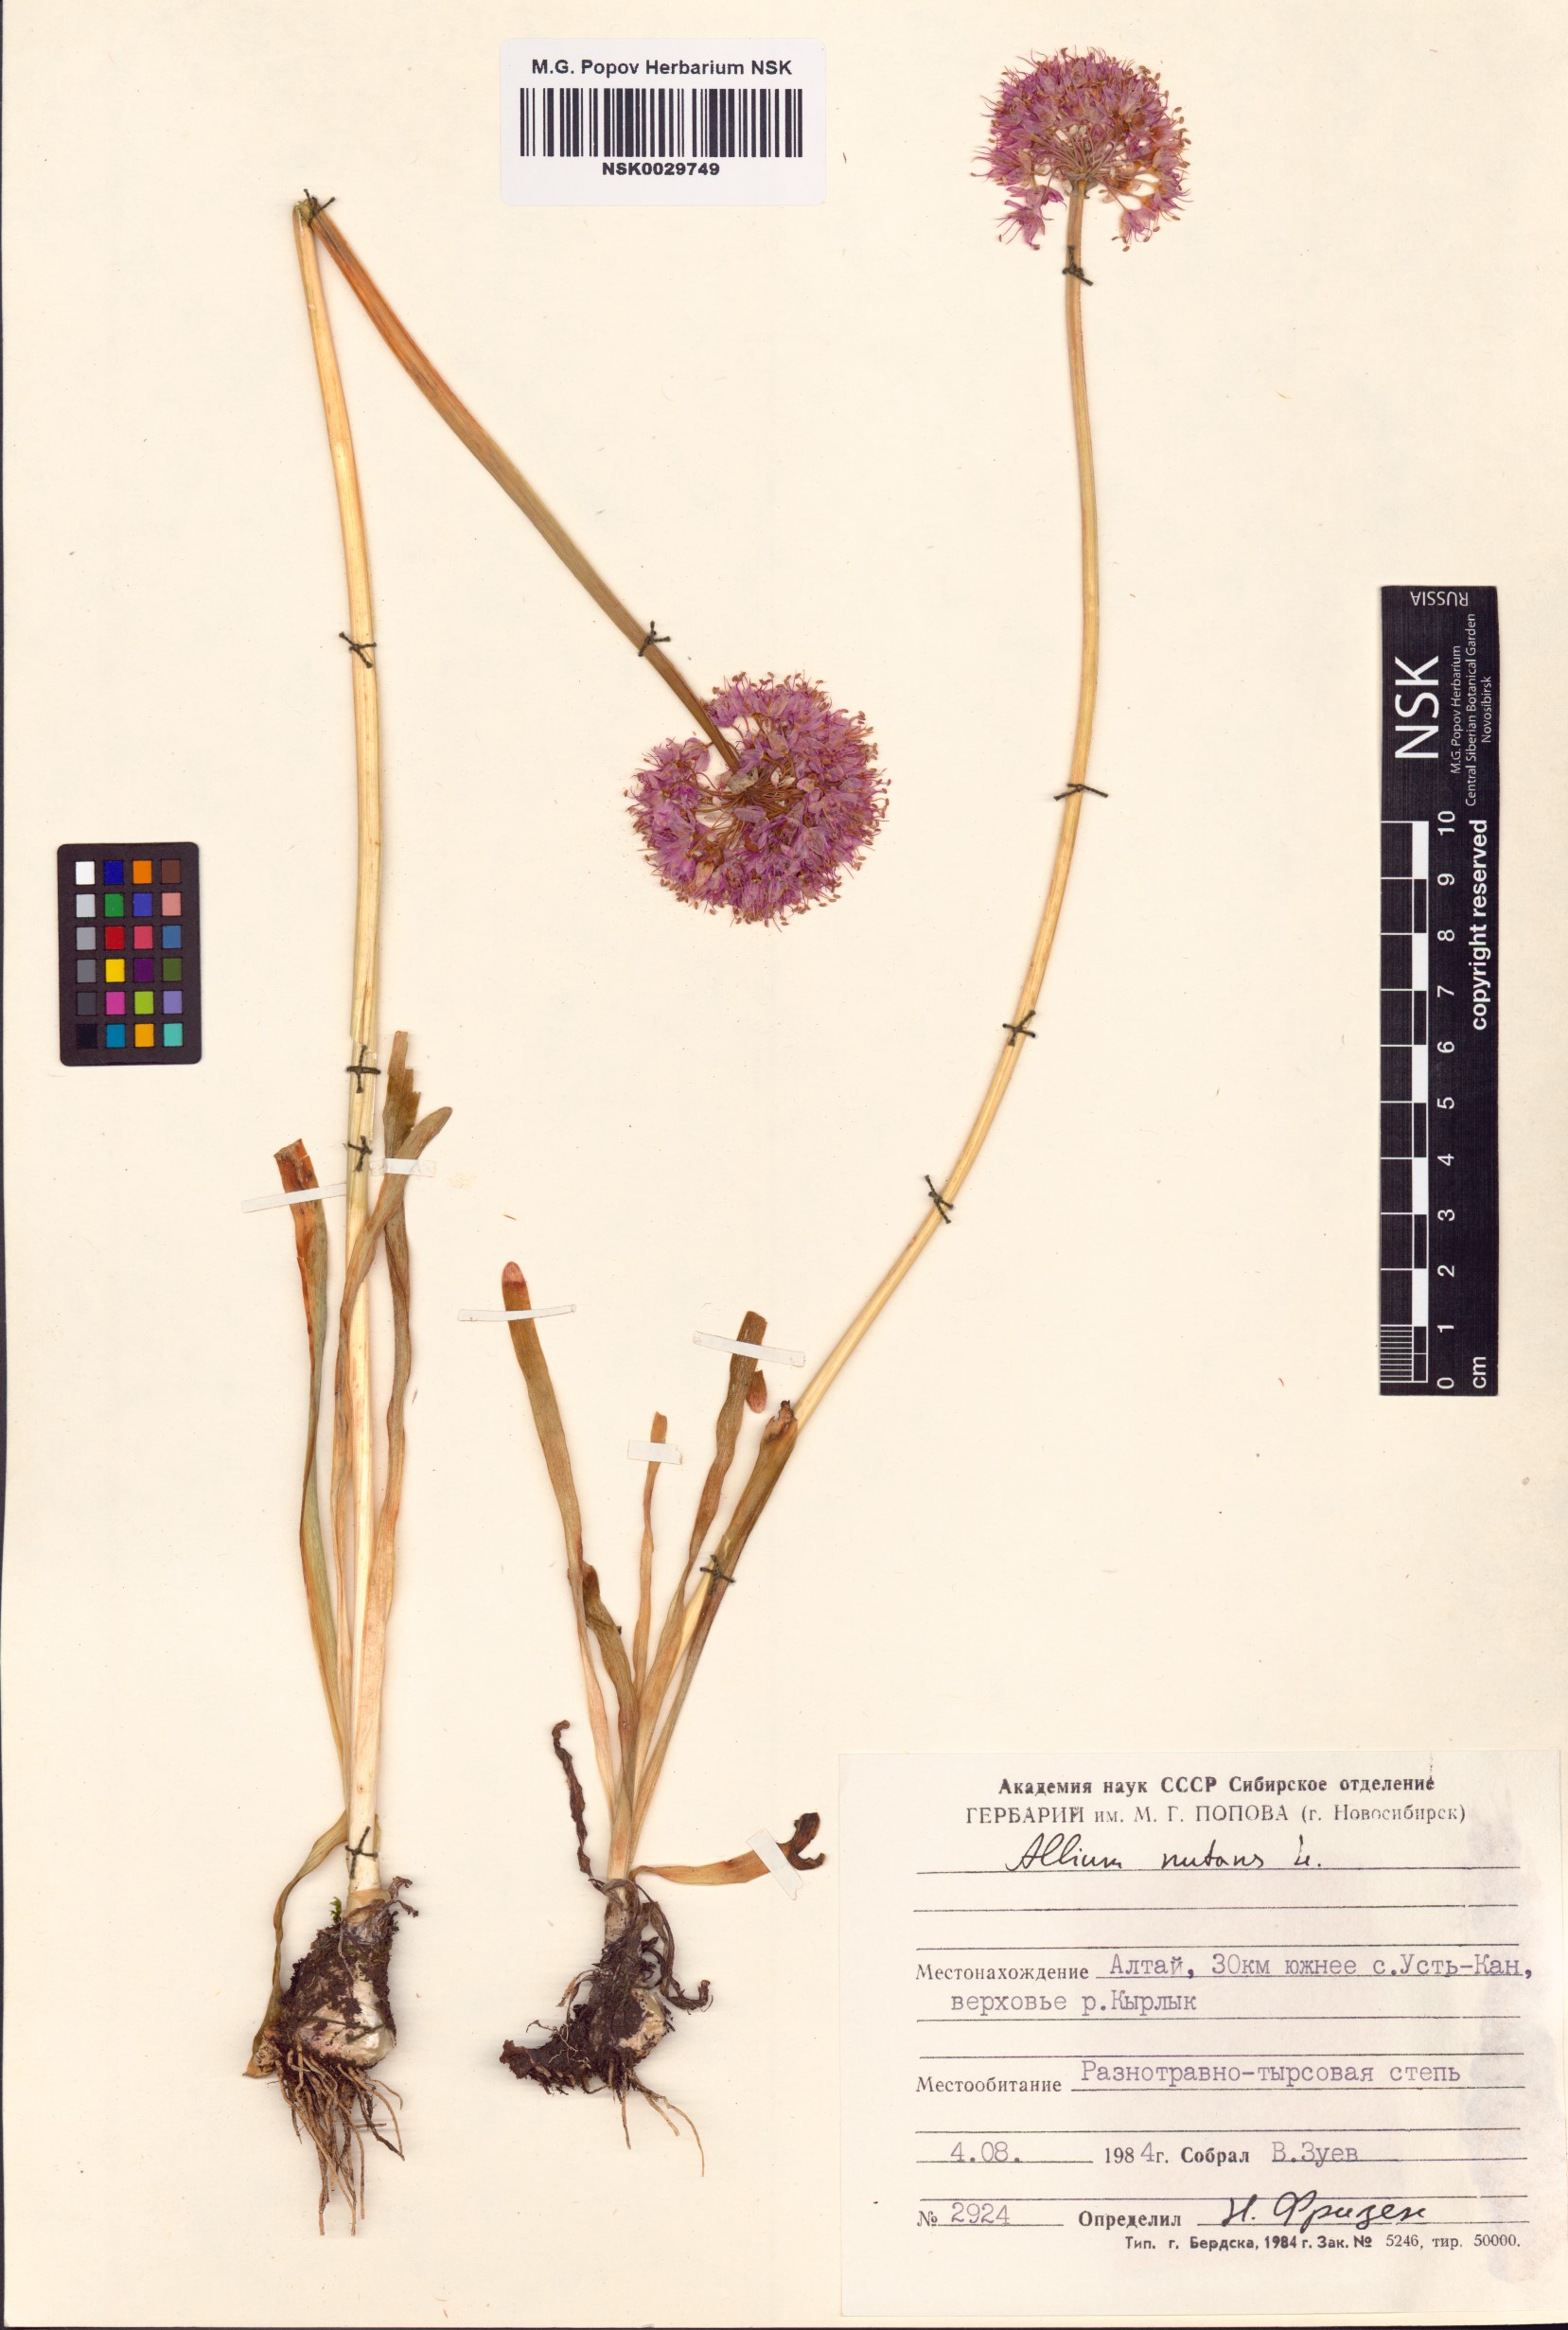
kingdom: Plantae
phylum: Tracheophyta
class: Liliopsida
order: Asparagales
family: Amaryllidaceae
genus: Allium
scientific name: Allium nutans
